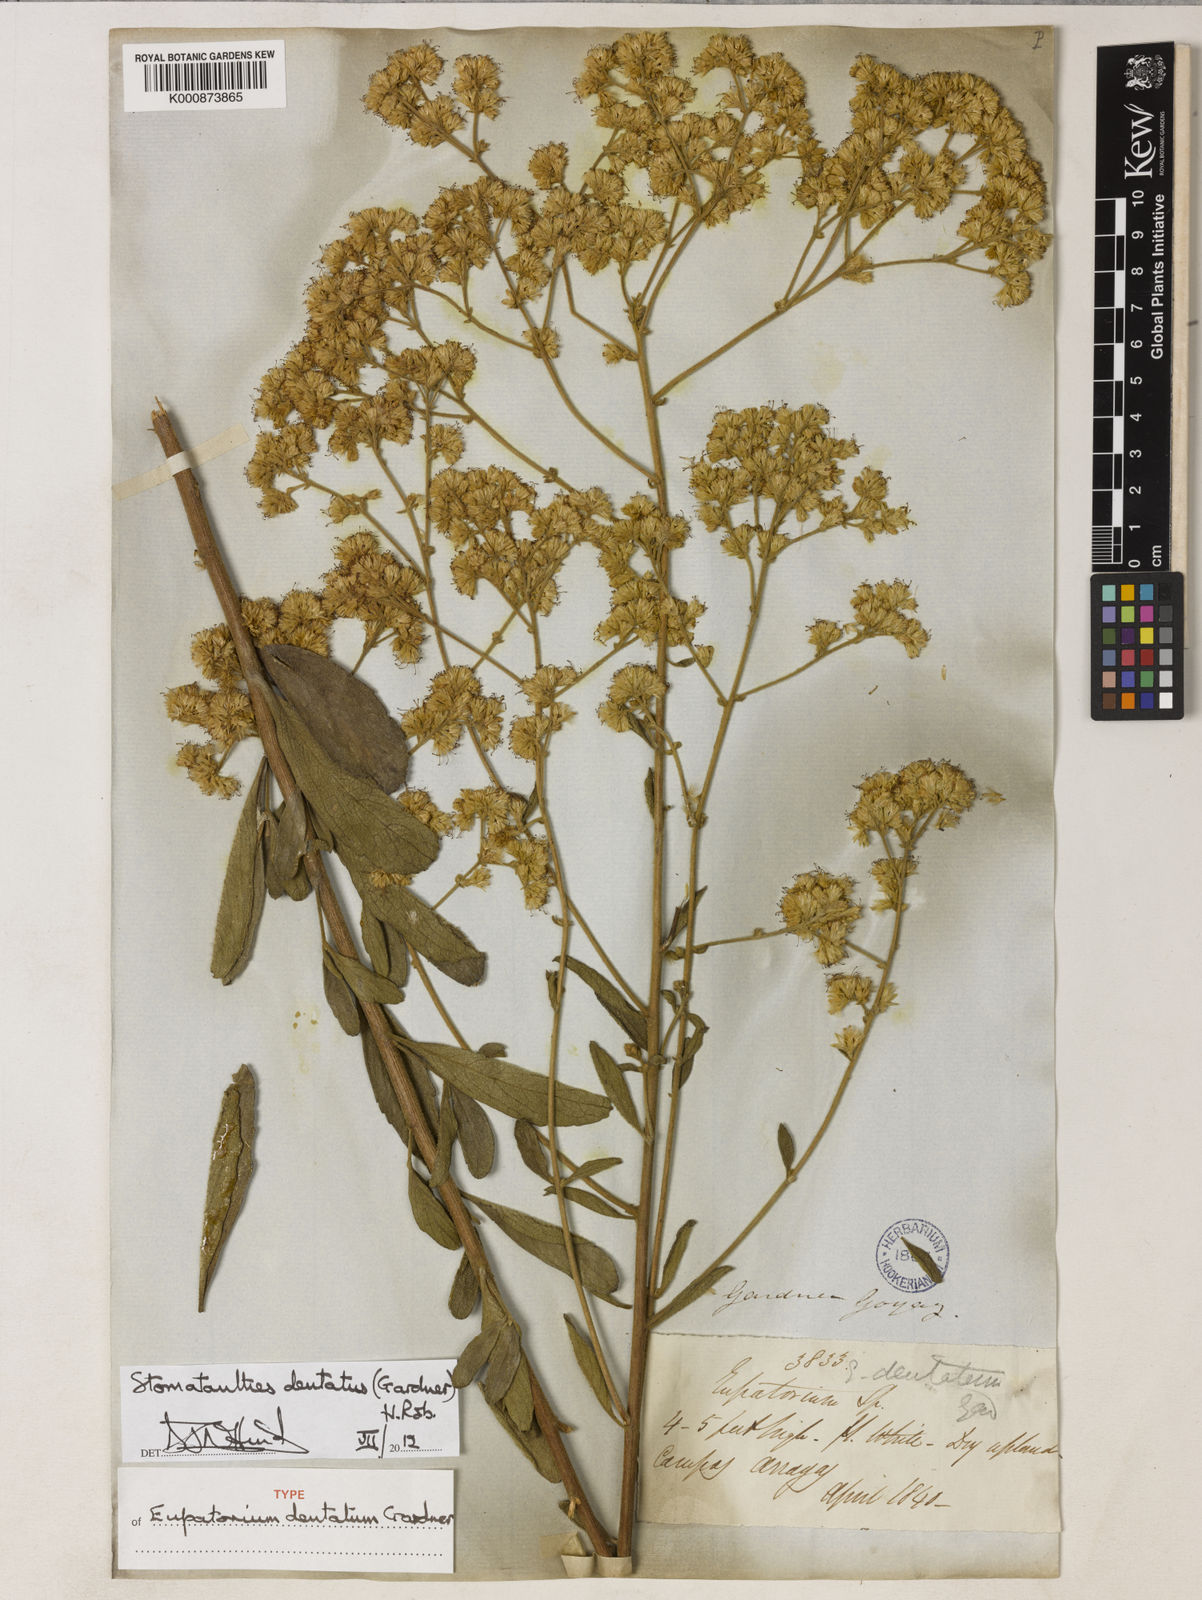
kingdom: Plantae
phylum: Tracheophyta
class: Magnoliopsida
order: Asterales
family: Asteraceae
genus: Stomatanthes
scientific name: Stomatanthes dentatus
